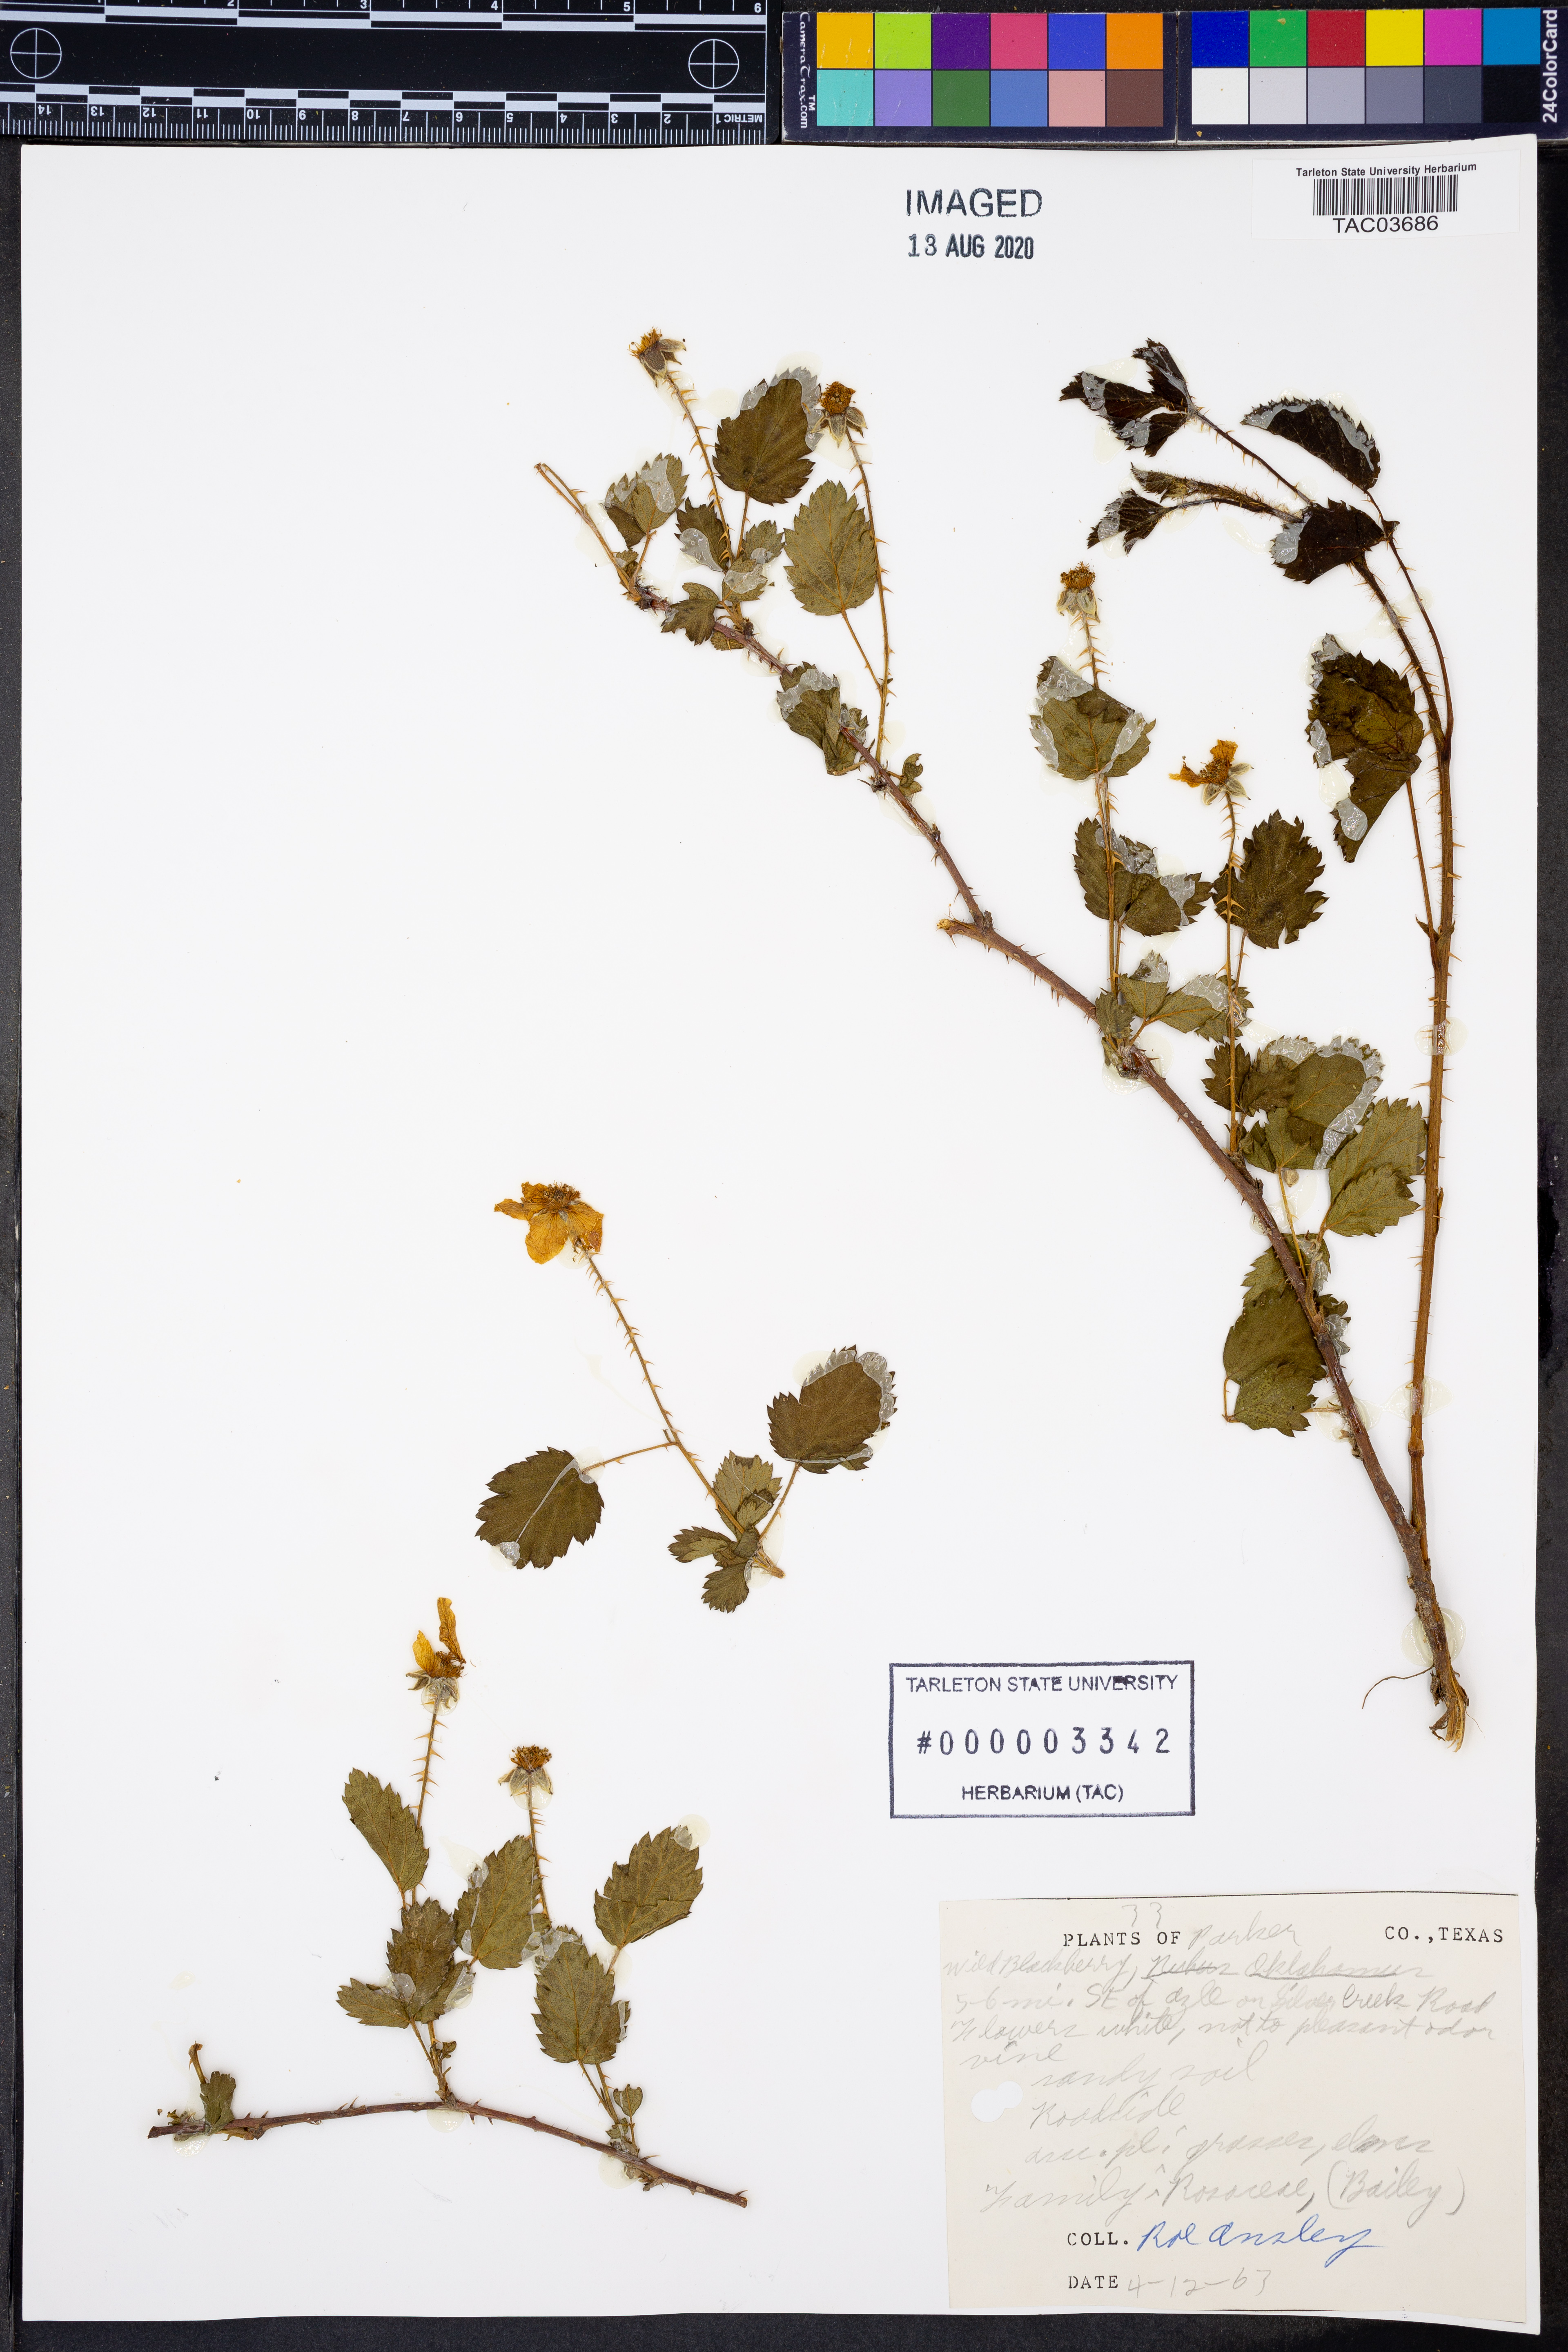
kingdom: Plantae
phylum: Tracheophyta
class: Magnoliopsida
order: Rosales
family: Rosaceae
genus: Rubus
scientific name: Rubus oklahomus
